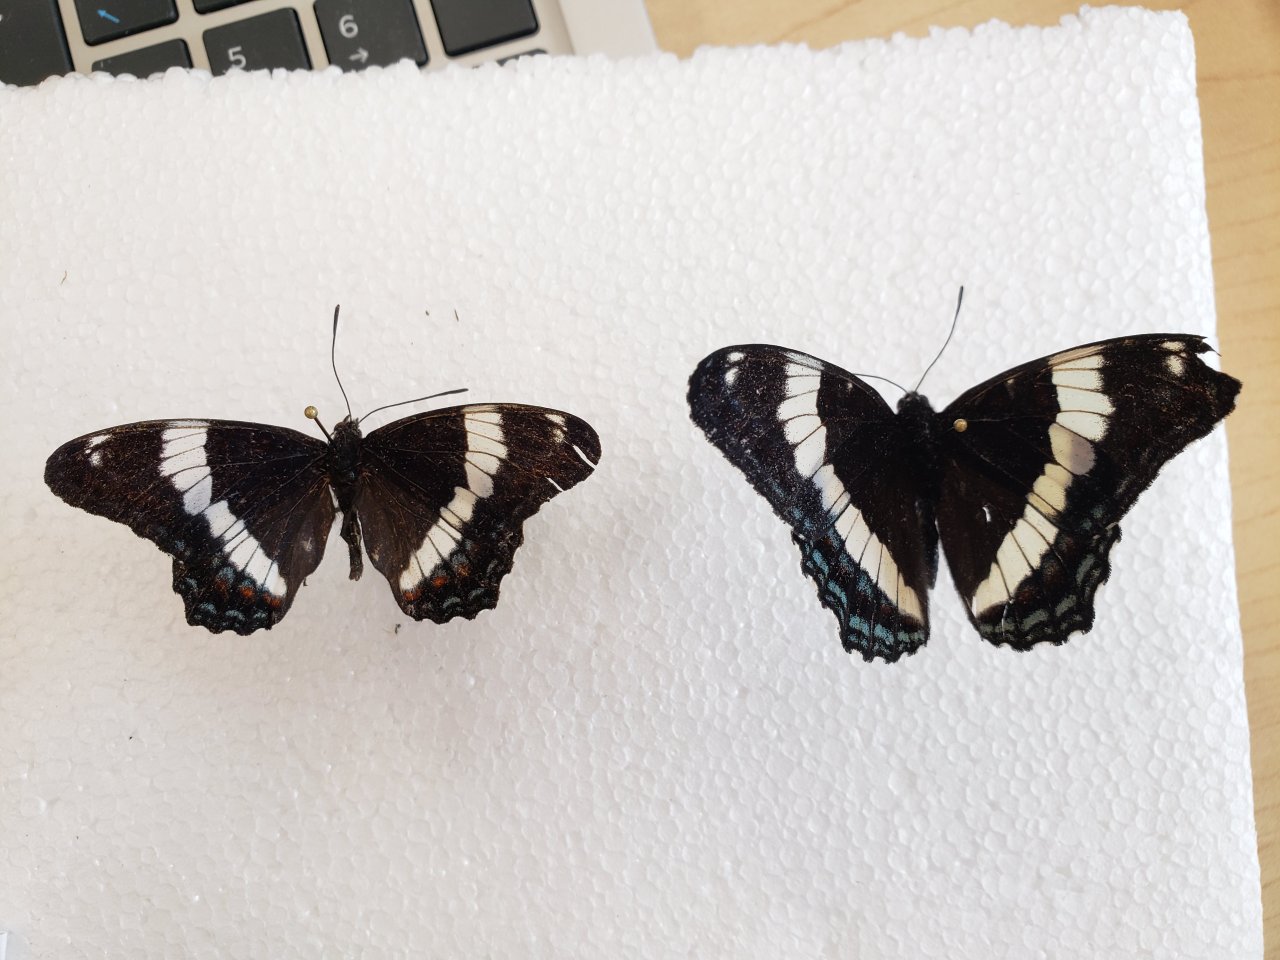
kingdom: Animalia
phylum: Arthropoda
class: Insecta
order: Lepidoptera
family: Nymphalidae
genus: Limenitis
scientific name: Limenitis arthemis
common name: Red-spotted Admiral
